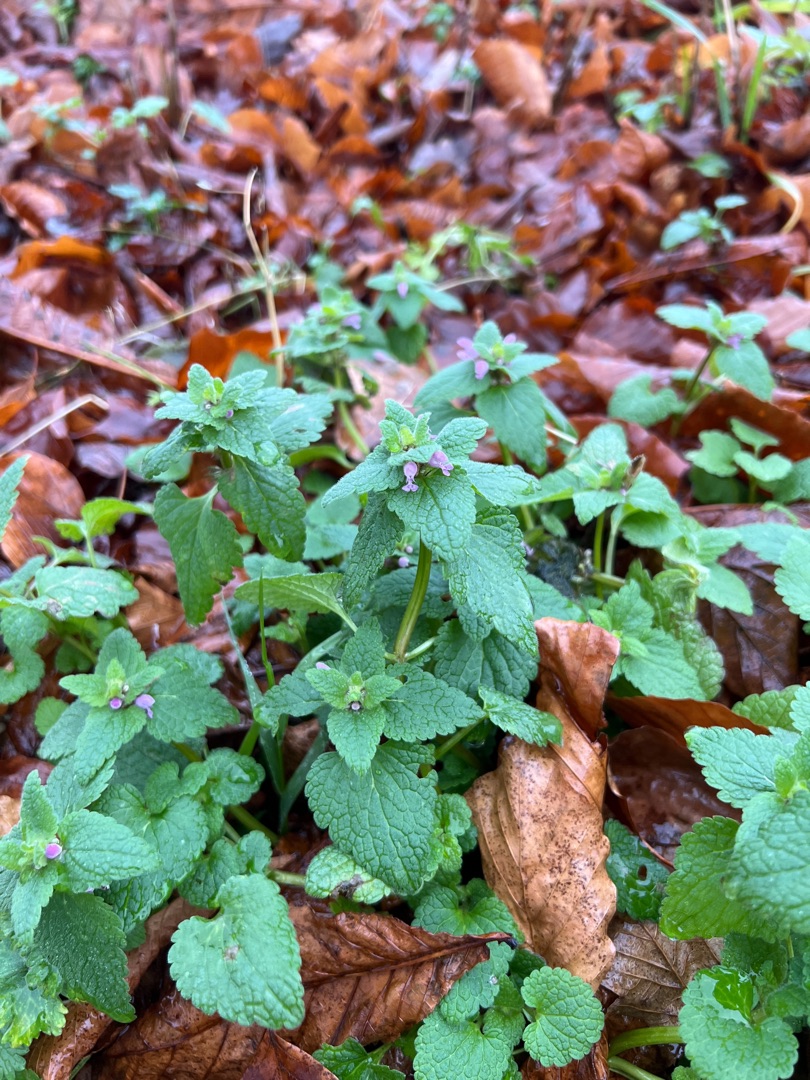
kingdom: Plantae
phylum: Tracheophyta
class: Magnoliopsida
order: Lamiales
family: Lamiaceae
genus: Lamium
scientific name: Lamium purpureum
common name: Rød tvetand
